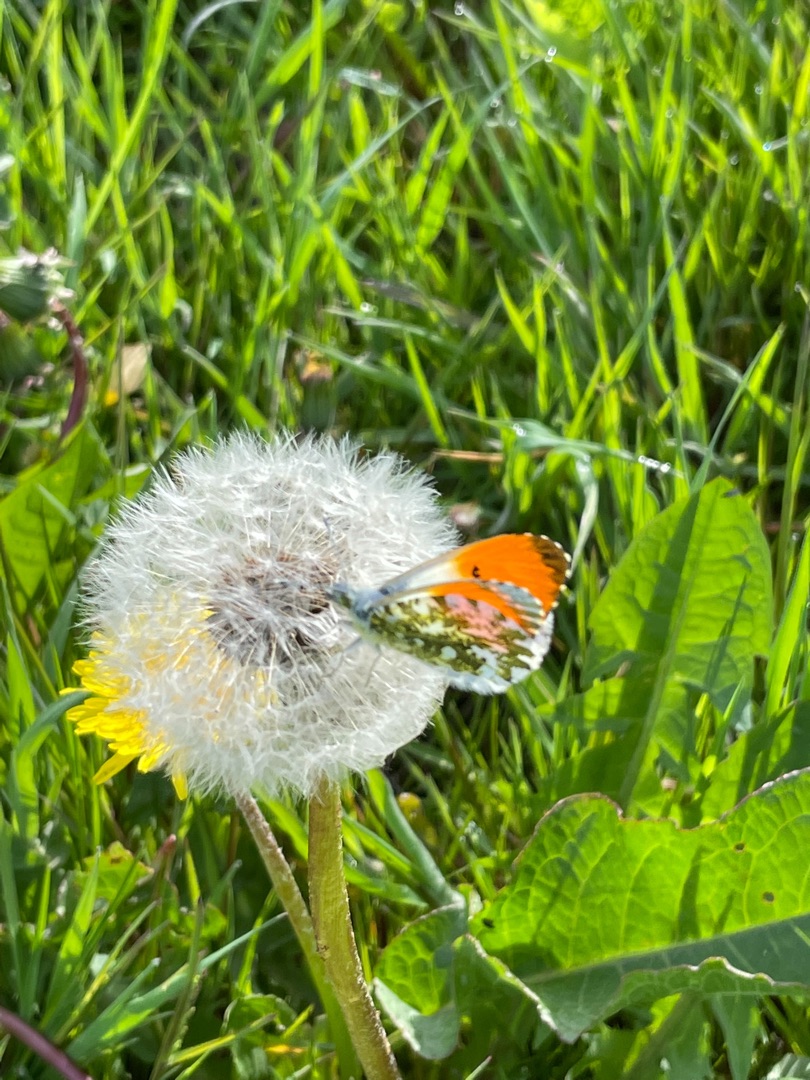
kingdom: Animalia
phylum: Arthropoda
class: Insecta
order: Lepidoptera
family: Pieridae
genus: Anthocharis
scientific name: Anthocharis cardamines
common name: Aurora
